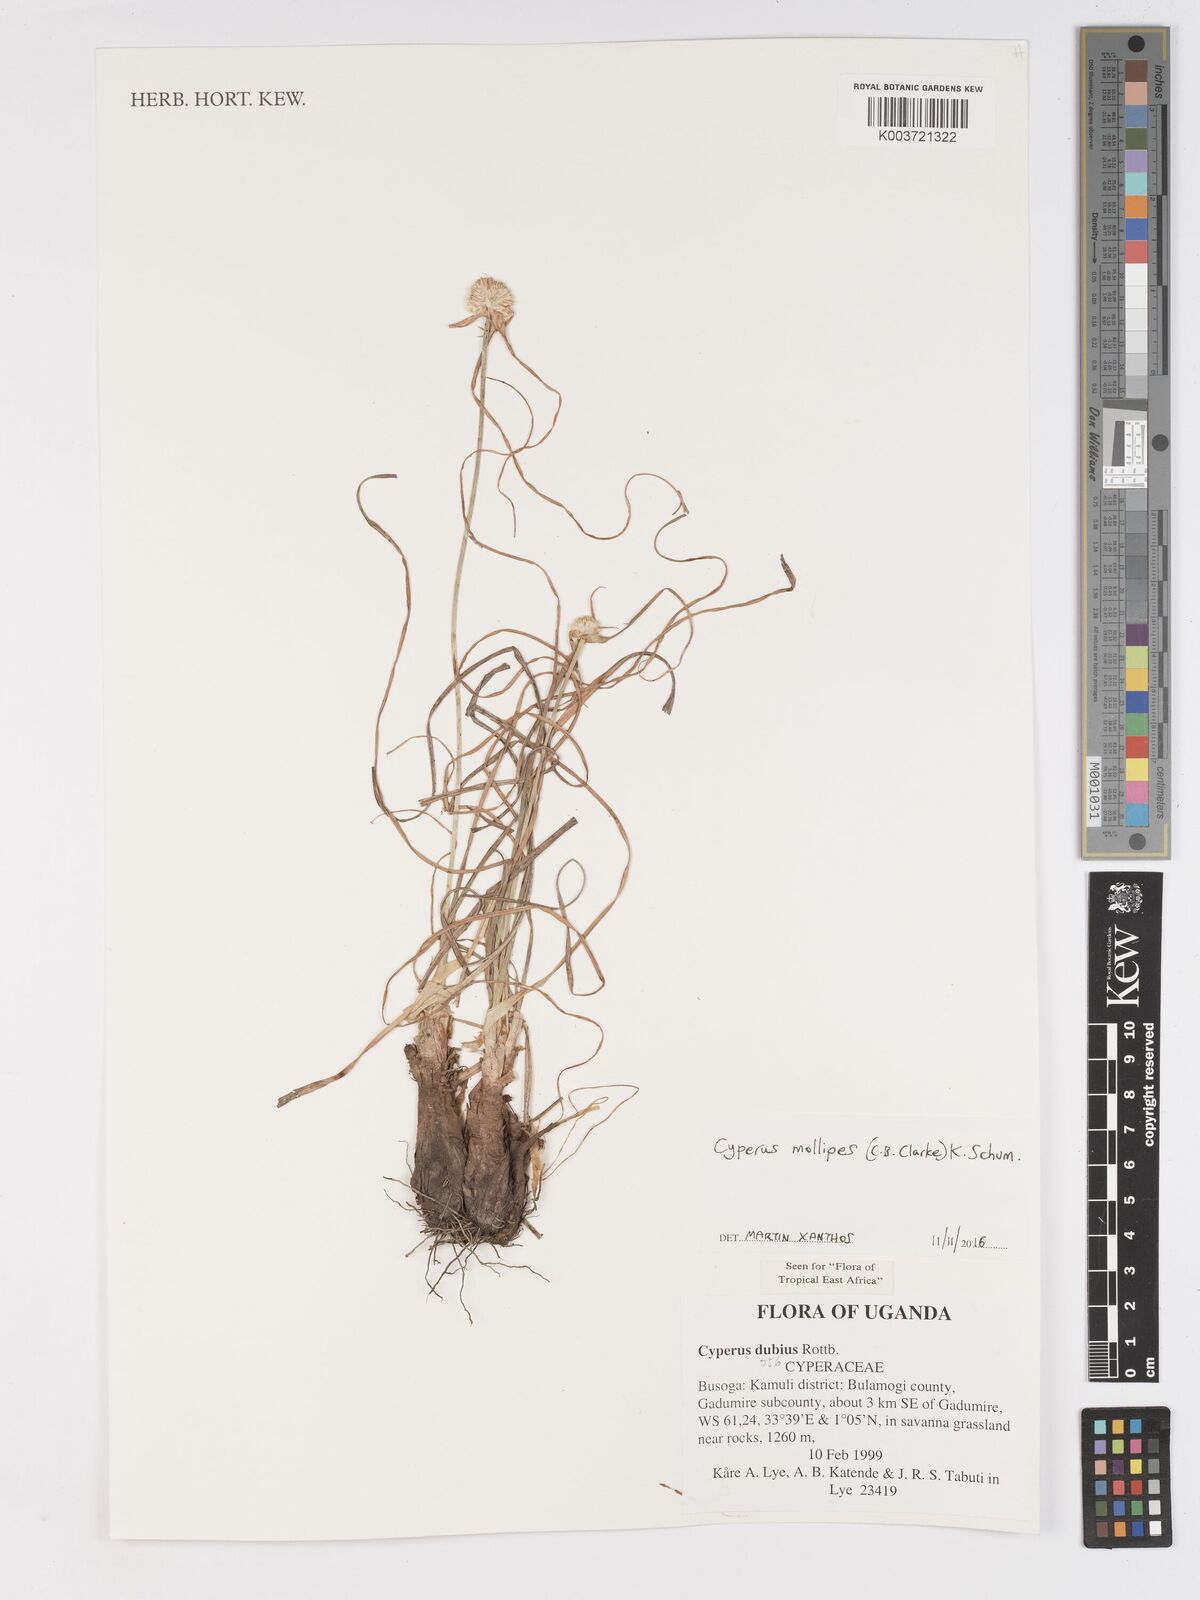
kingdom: Plantae
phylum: Tracheophyta
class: Liliopsida
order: Poales
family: Cyperaceae
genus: Cyperus
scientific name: Cyperus mollipes
